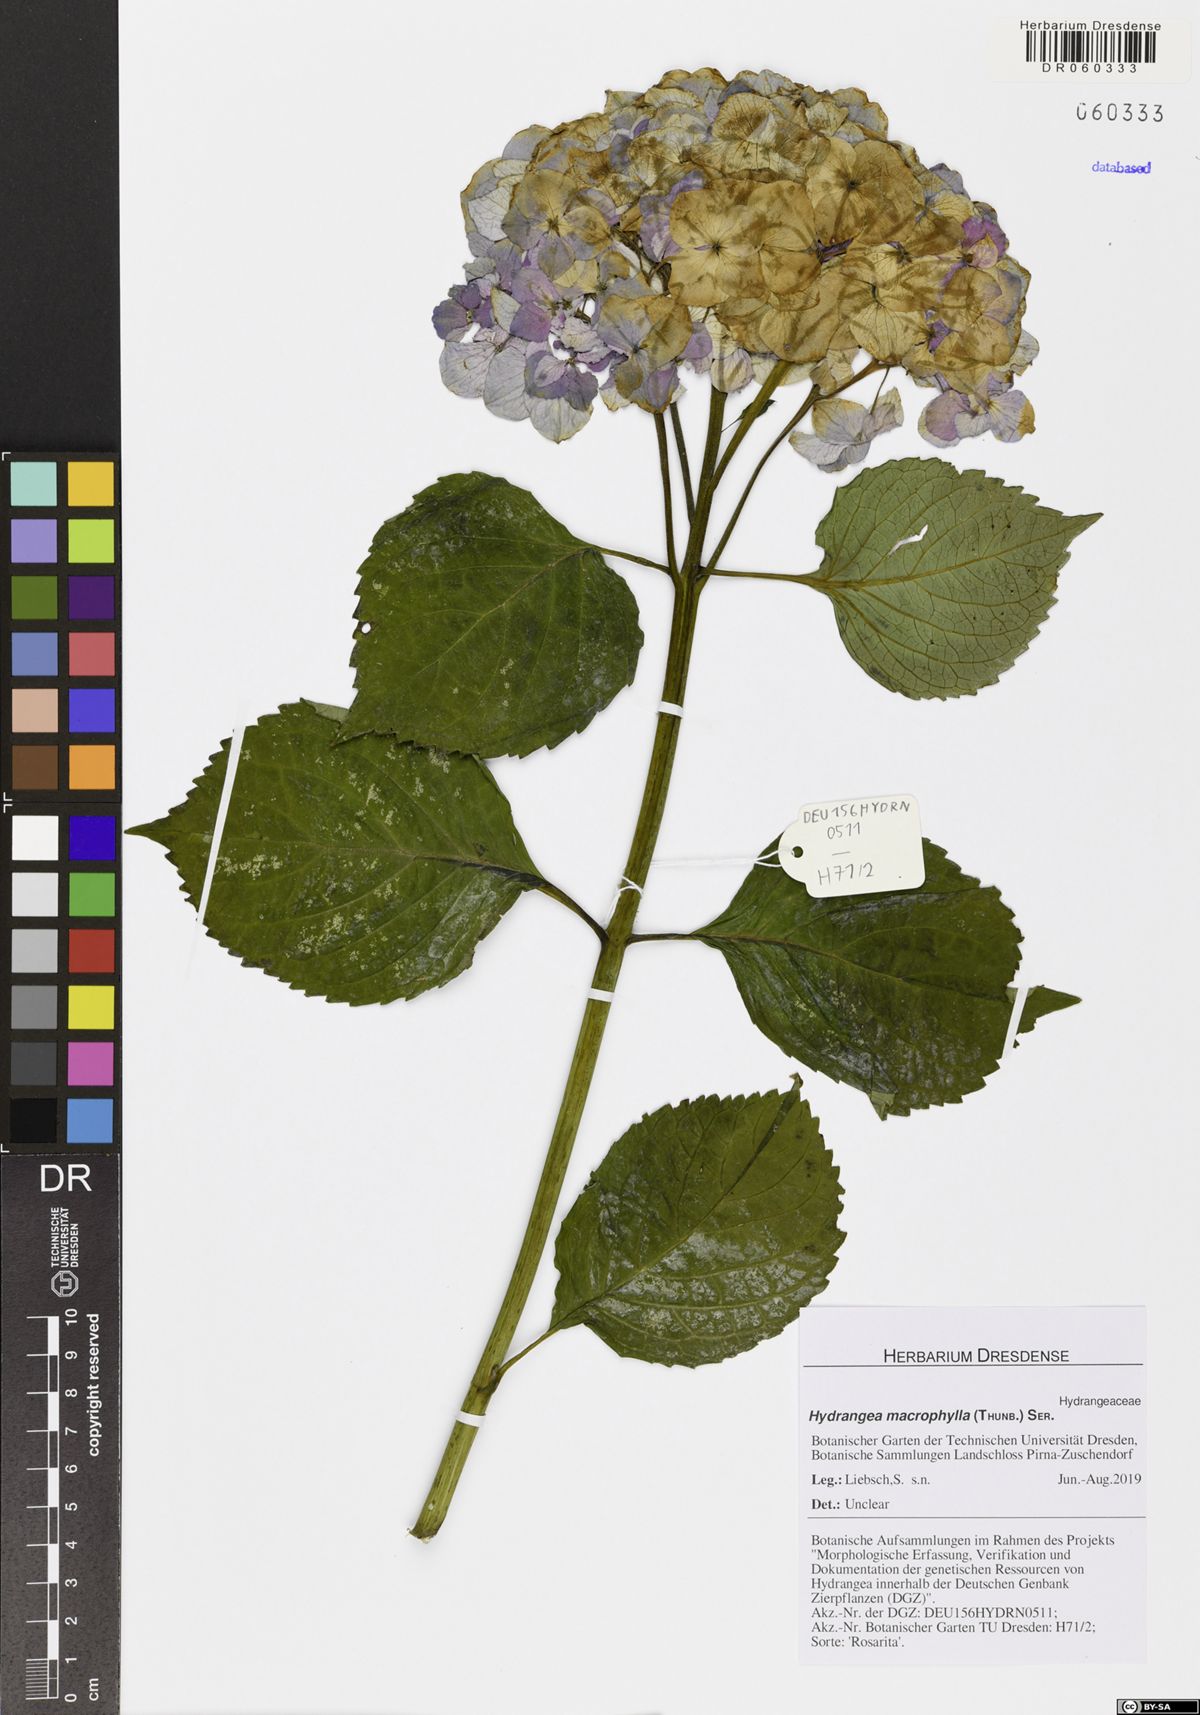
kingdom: Plantae
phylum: Tracheophyta
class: Magnoliopsida
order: Cornales
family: Hydrangeaceae
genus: Hydrangea
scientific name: Hydrangea macrophylla
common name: Hydrangea
